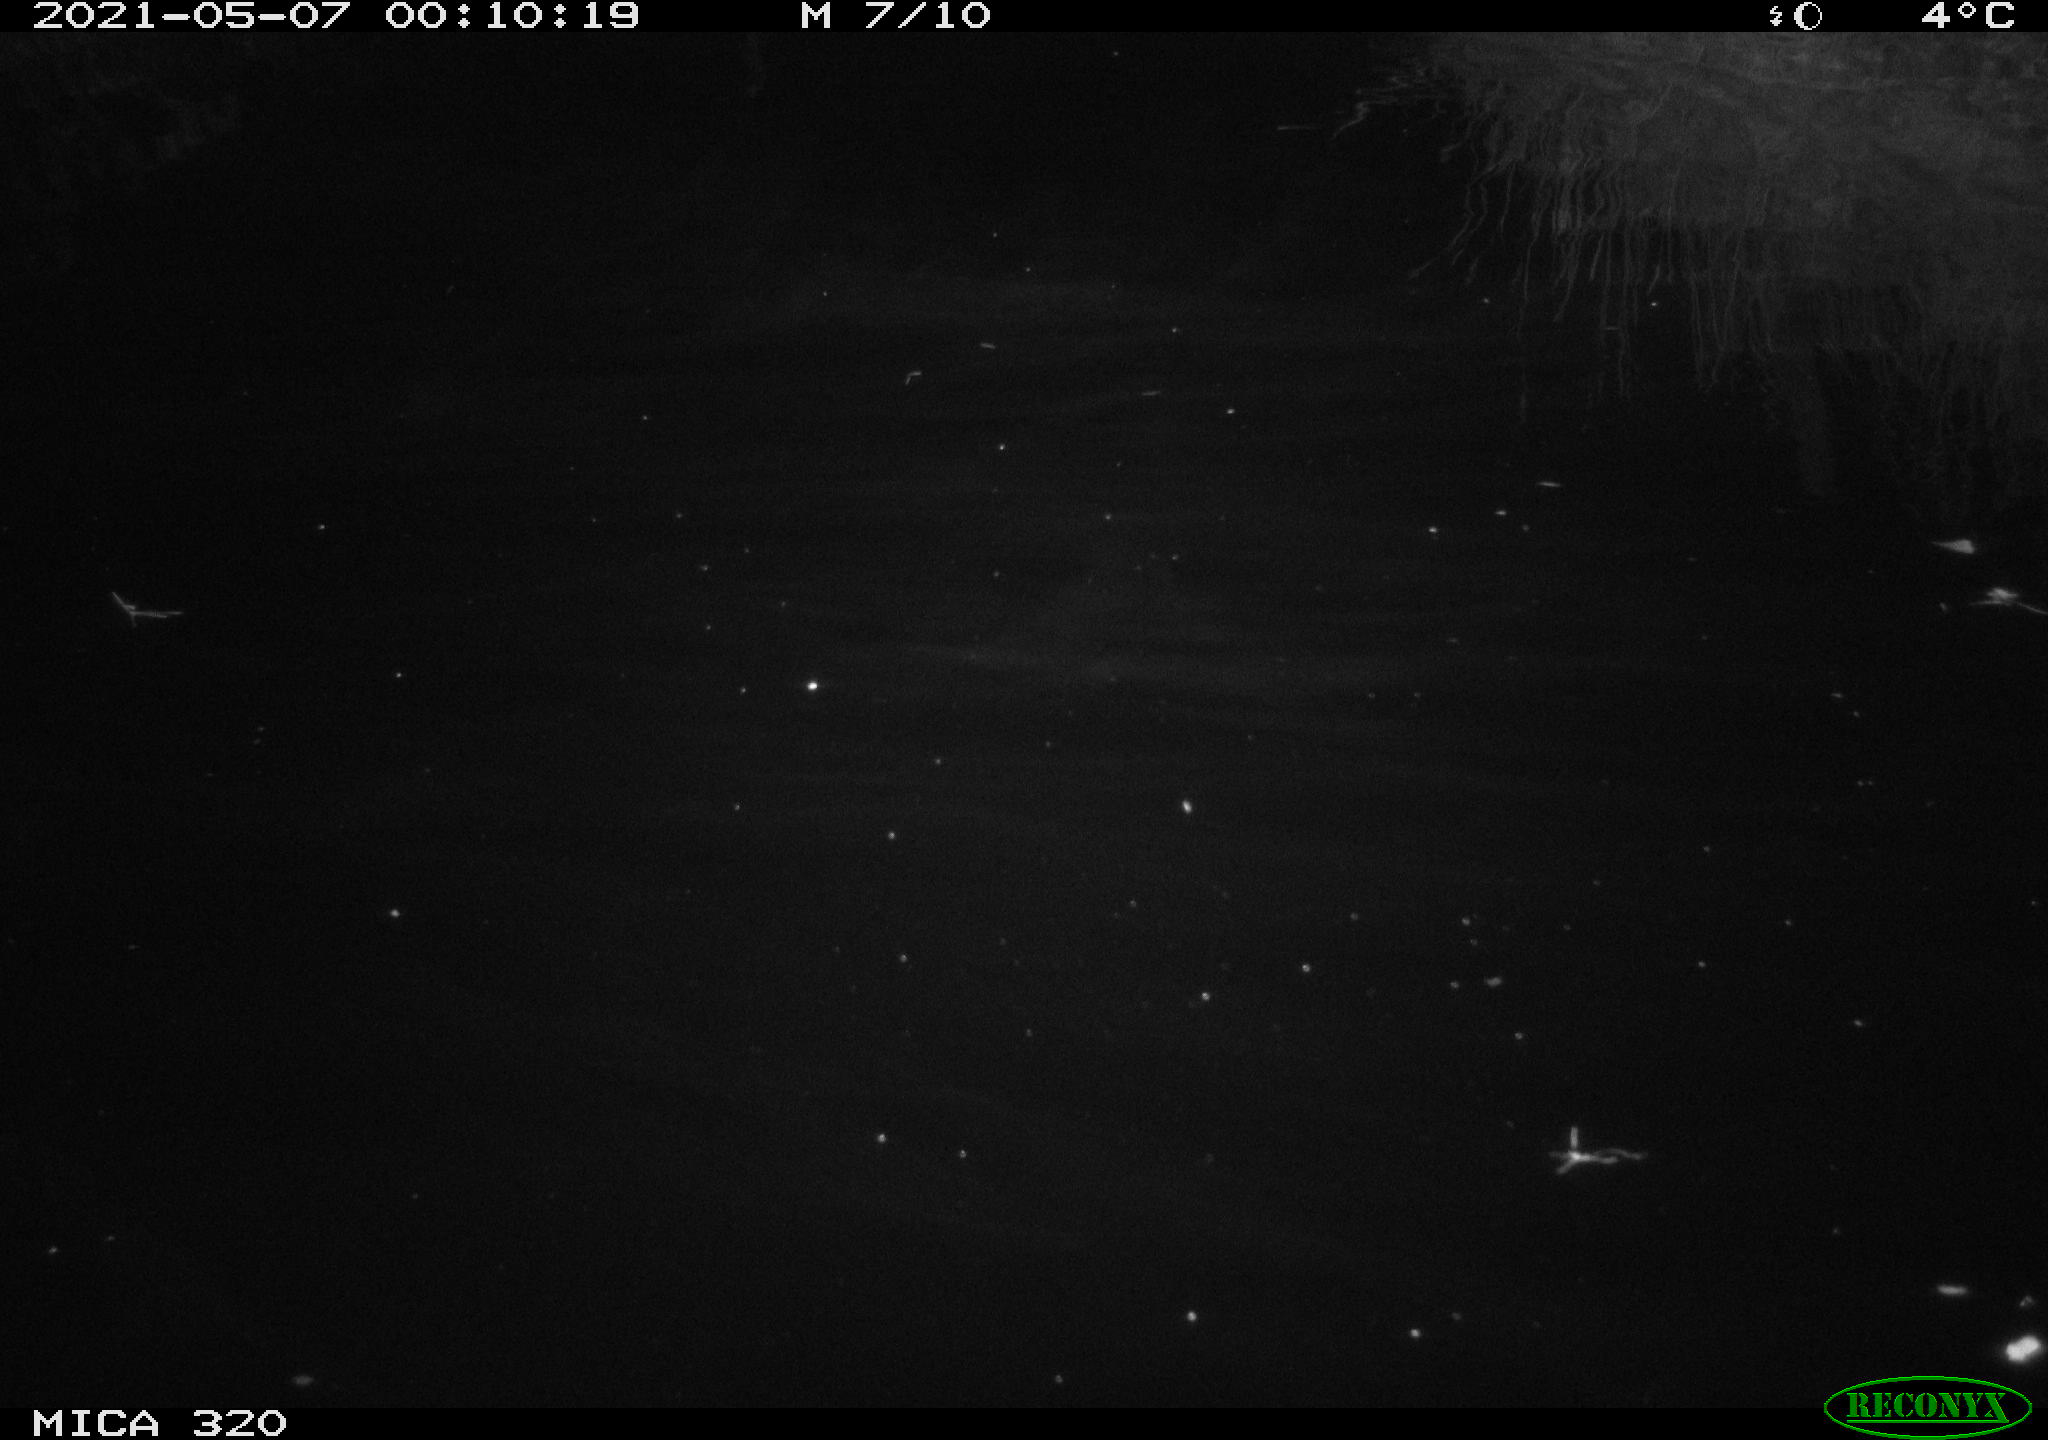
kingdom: Animalia
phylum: Chordata
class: Aves
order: Anseriformes
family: Anatidae
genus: Mareca
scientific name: Mareca strepera
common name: Gadwall
